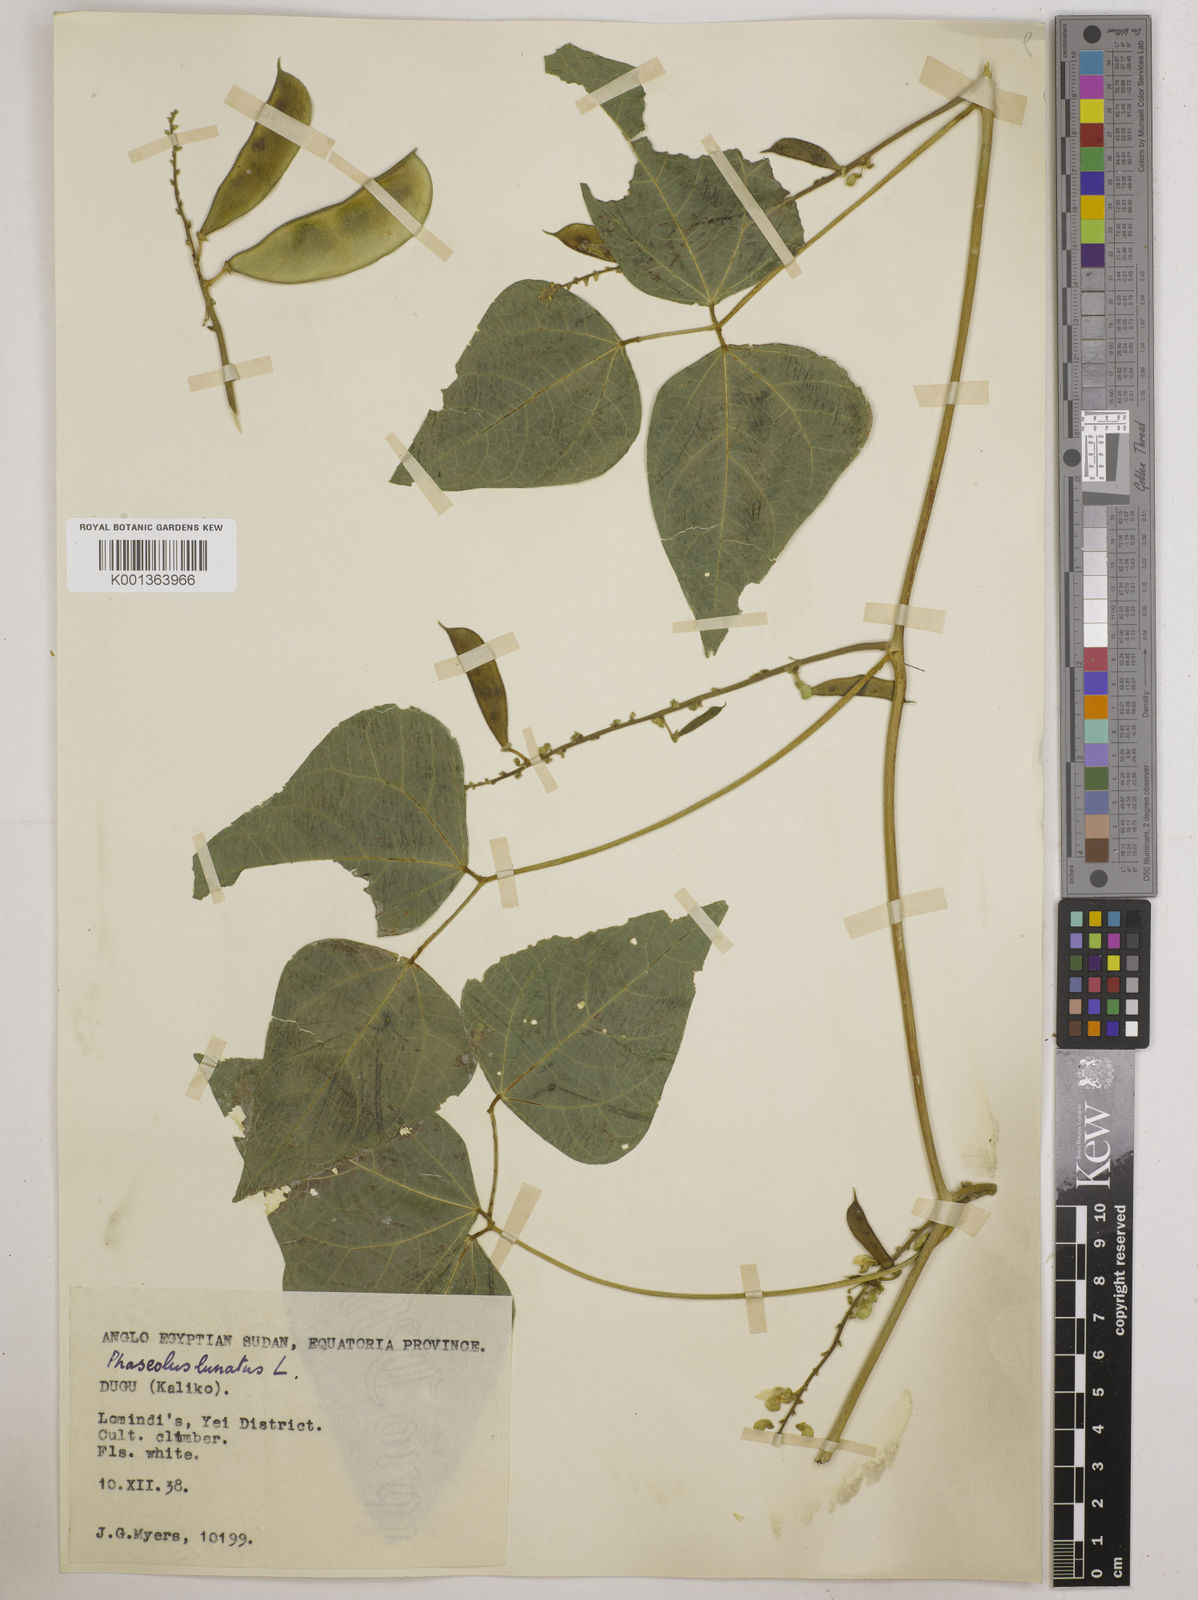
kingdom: Plantae
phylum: Tracheophyta
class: Magnoliopsida
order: Fabales
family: Fabaceae
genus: Phaseolus
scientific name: Phaseolus lunatus
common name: Sieva bean
